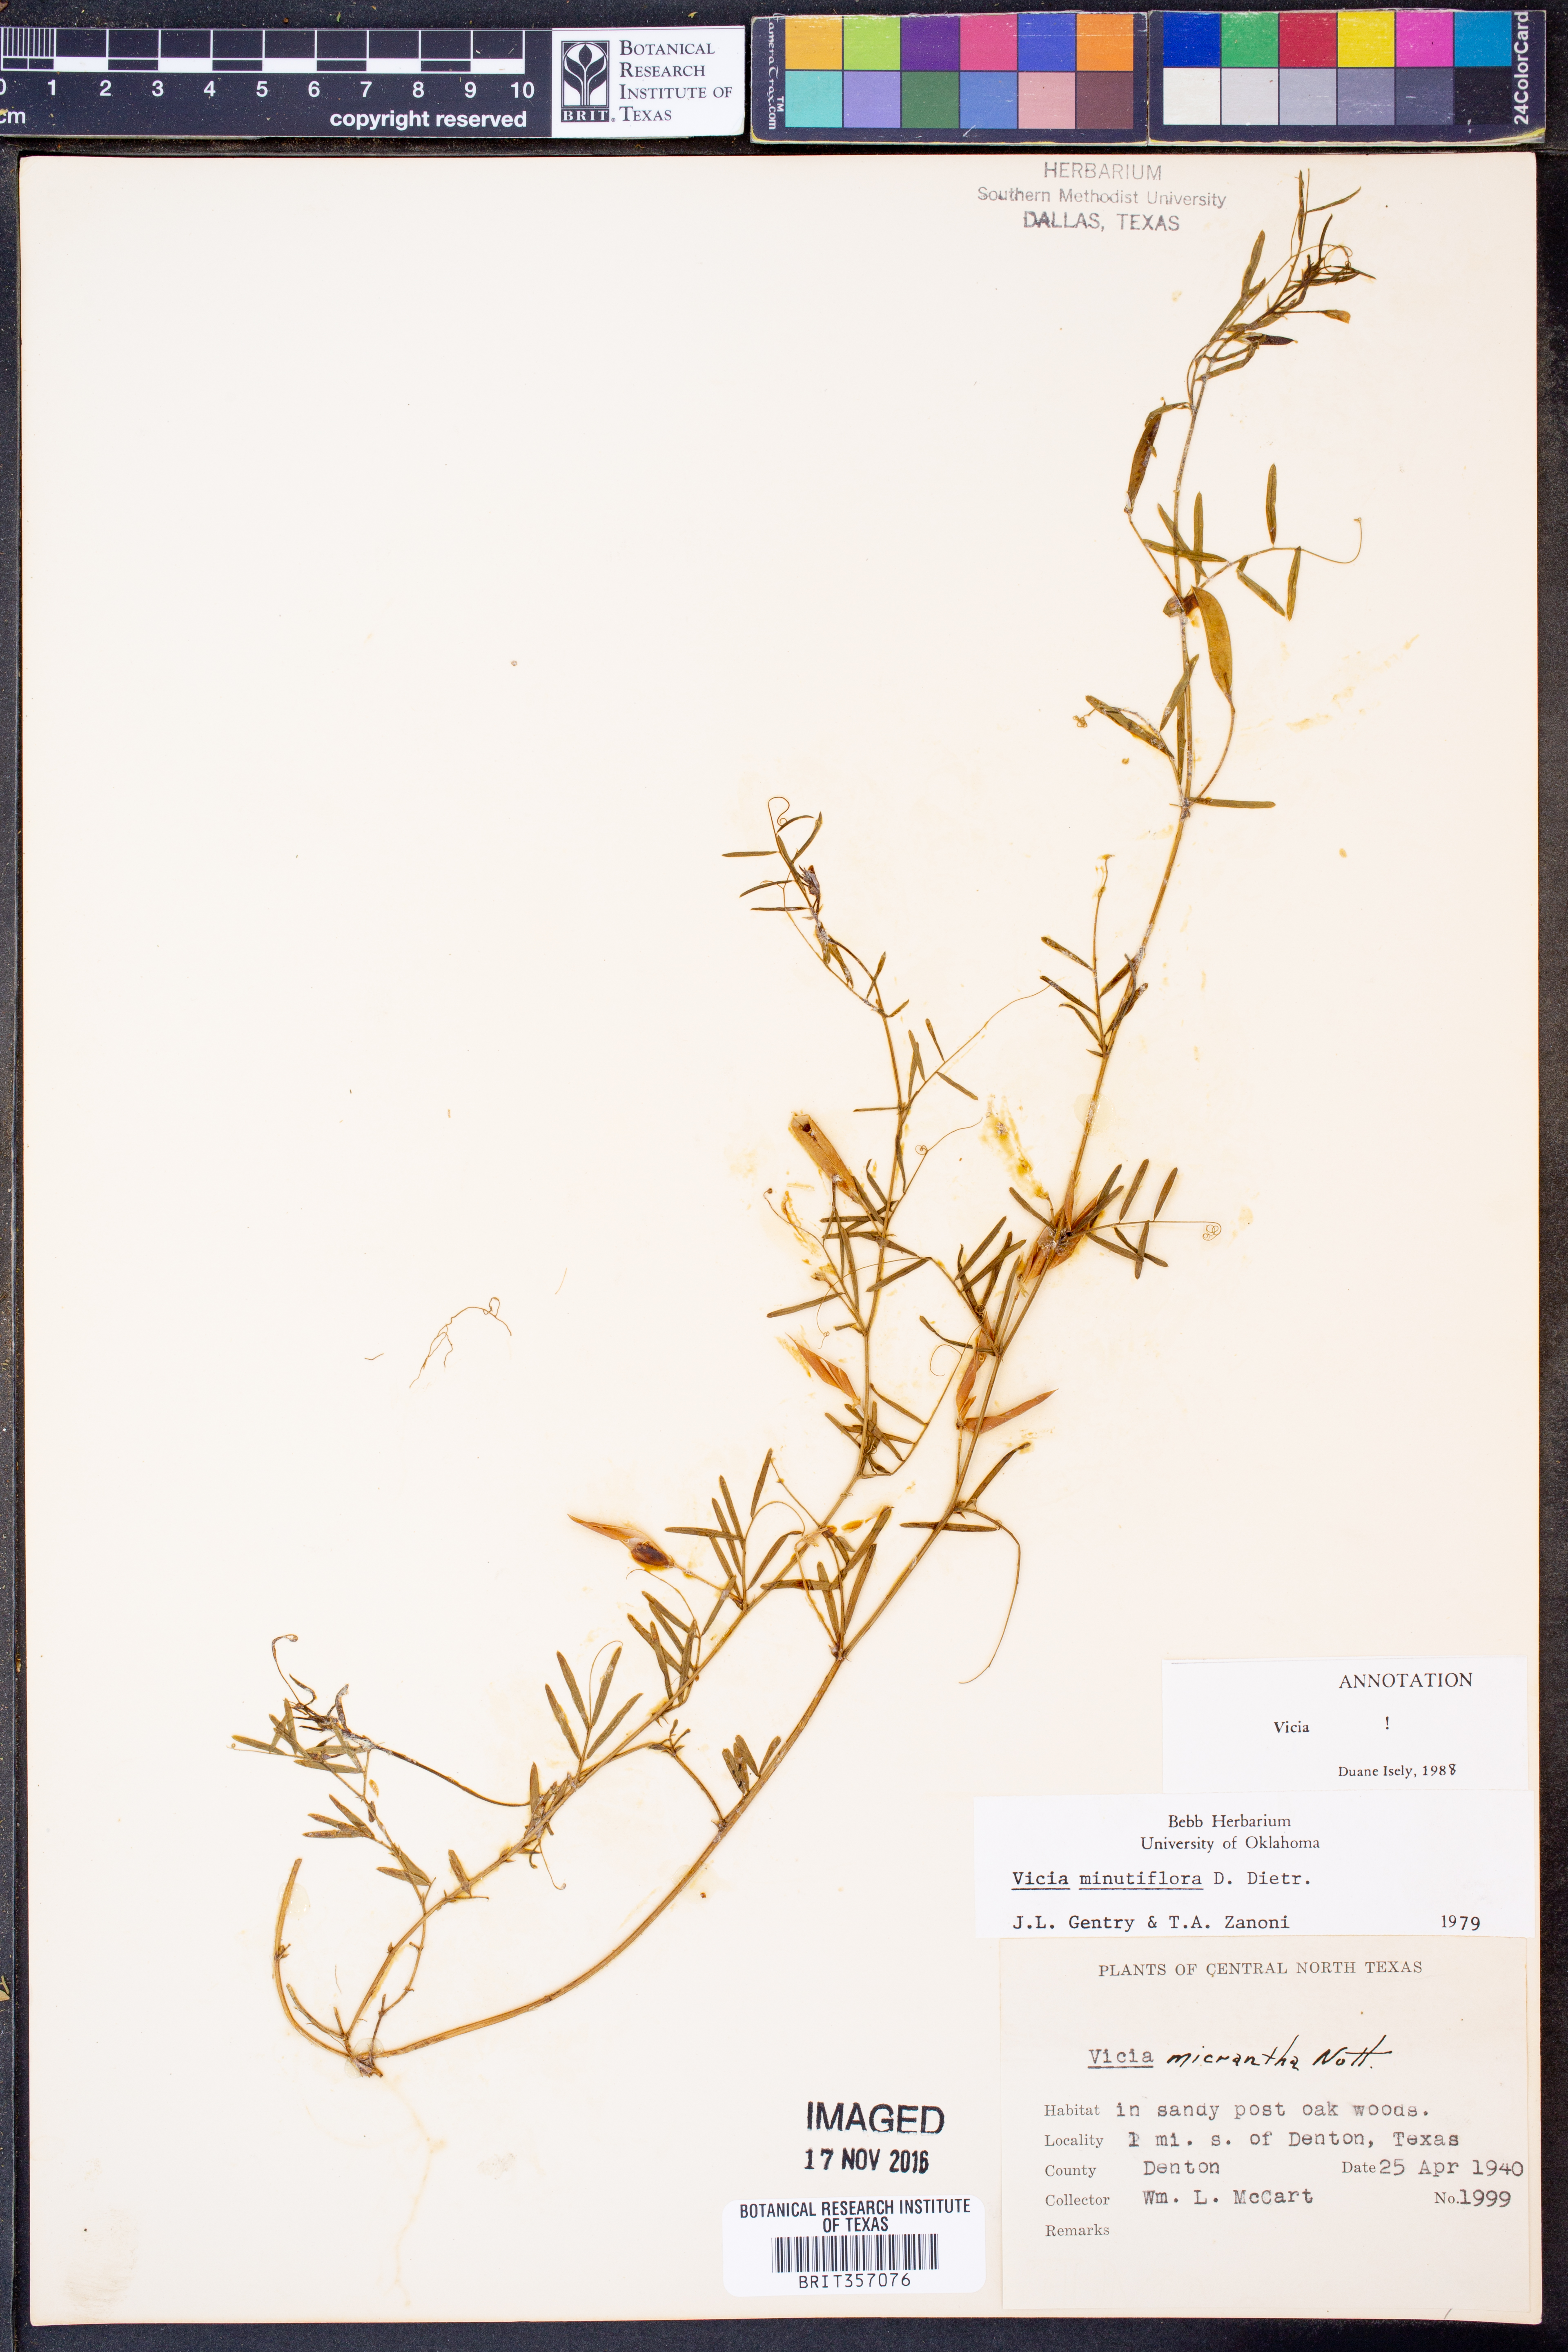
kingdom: Plantae
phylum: Tracheophyta
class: Magnoliopsida
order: Fabales
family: Fabaceae
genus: Vicia
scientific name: Vicia minutiflora
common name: Pygmy-flower vetch
